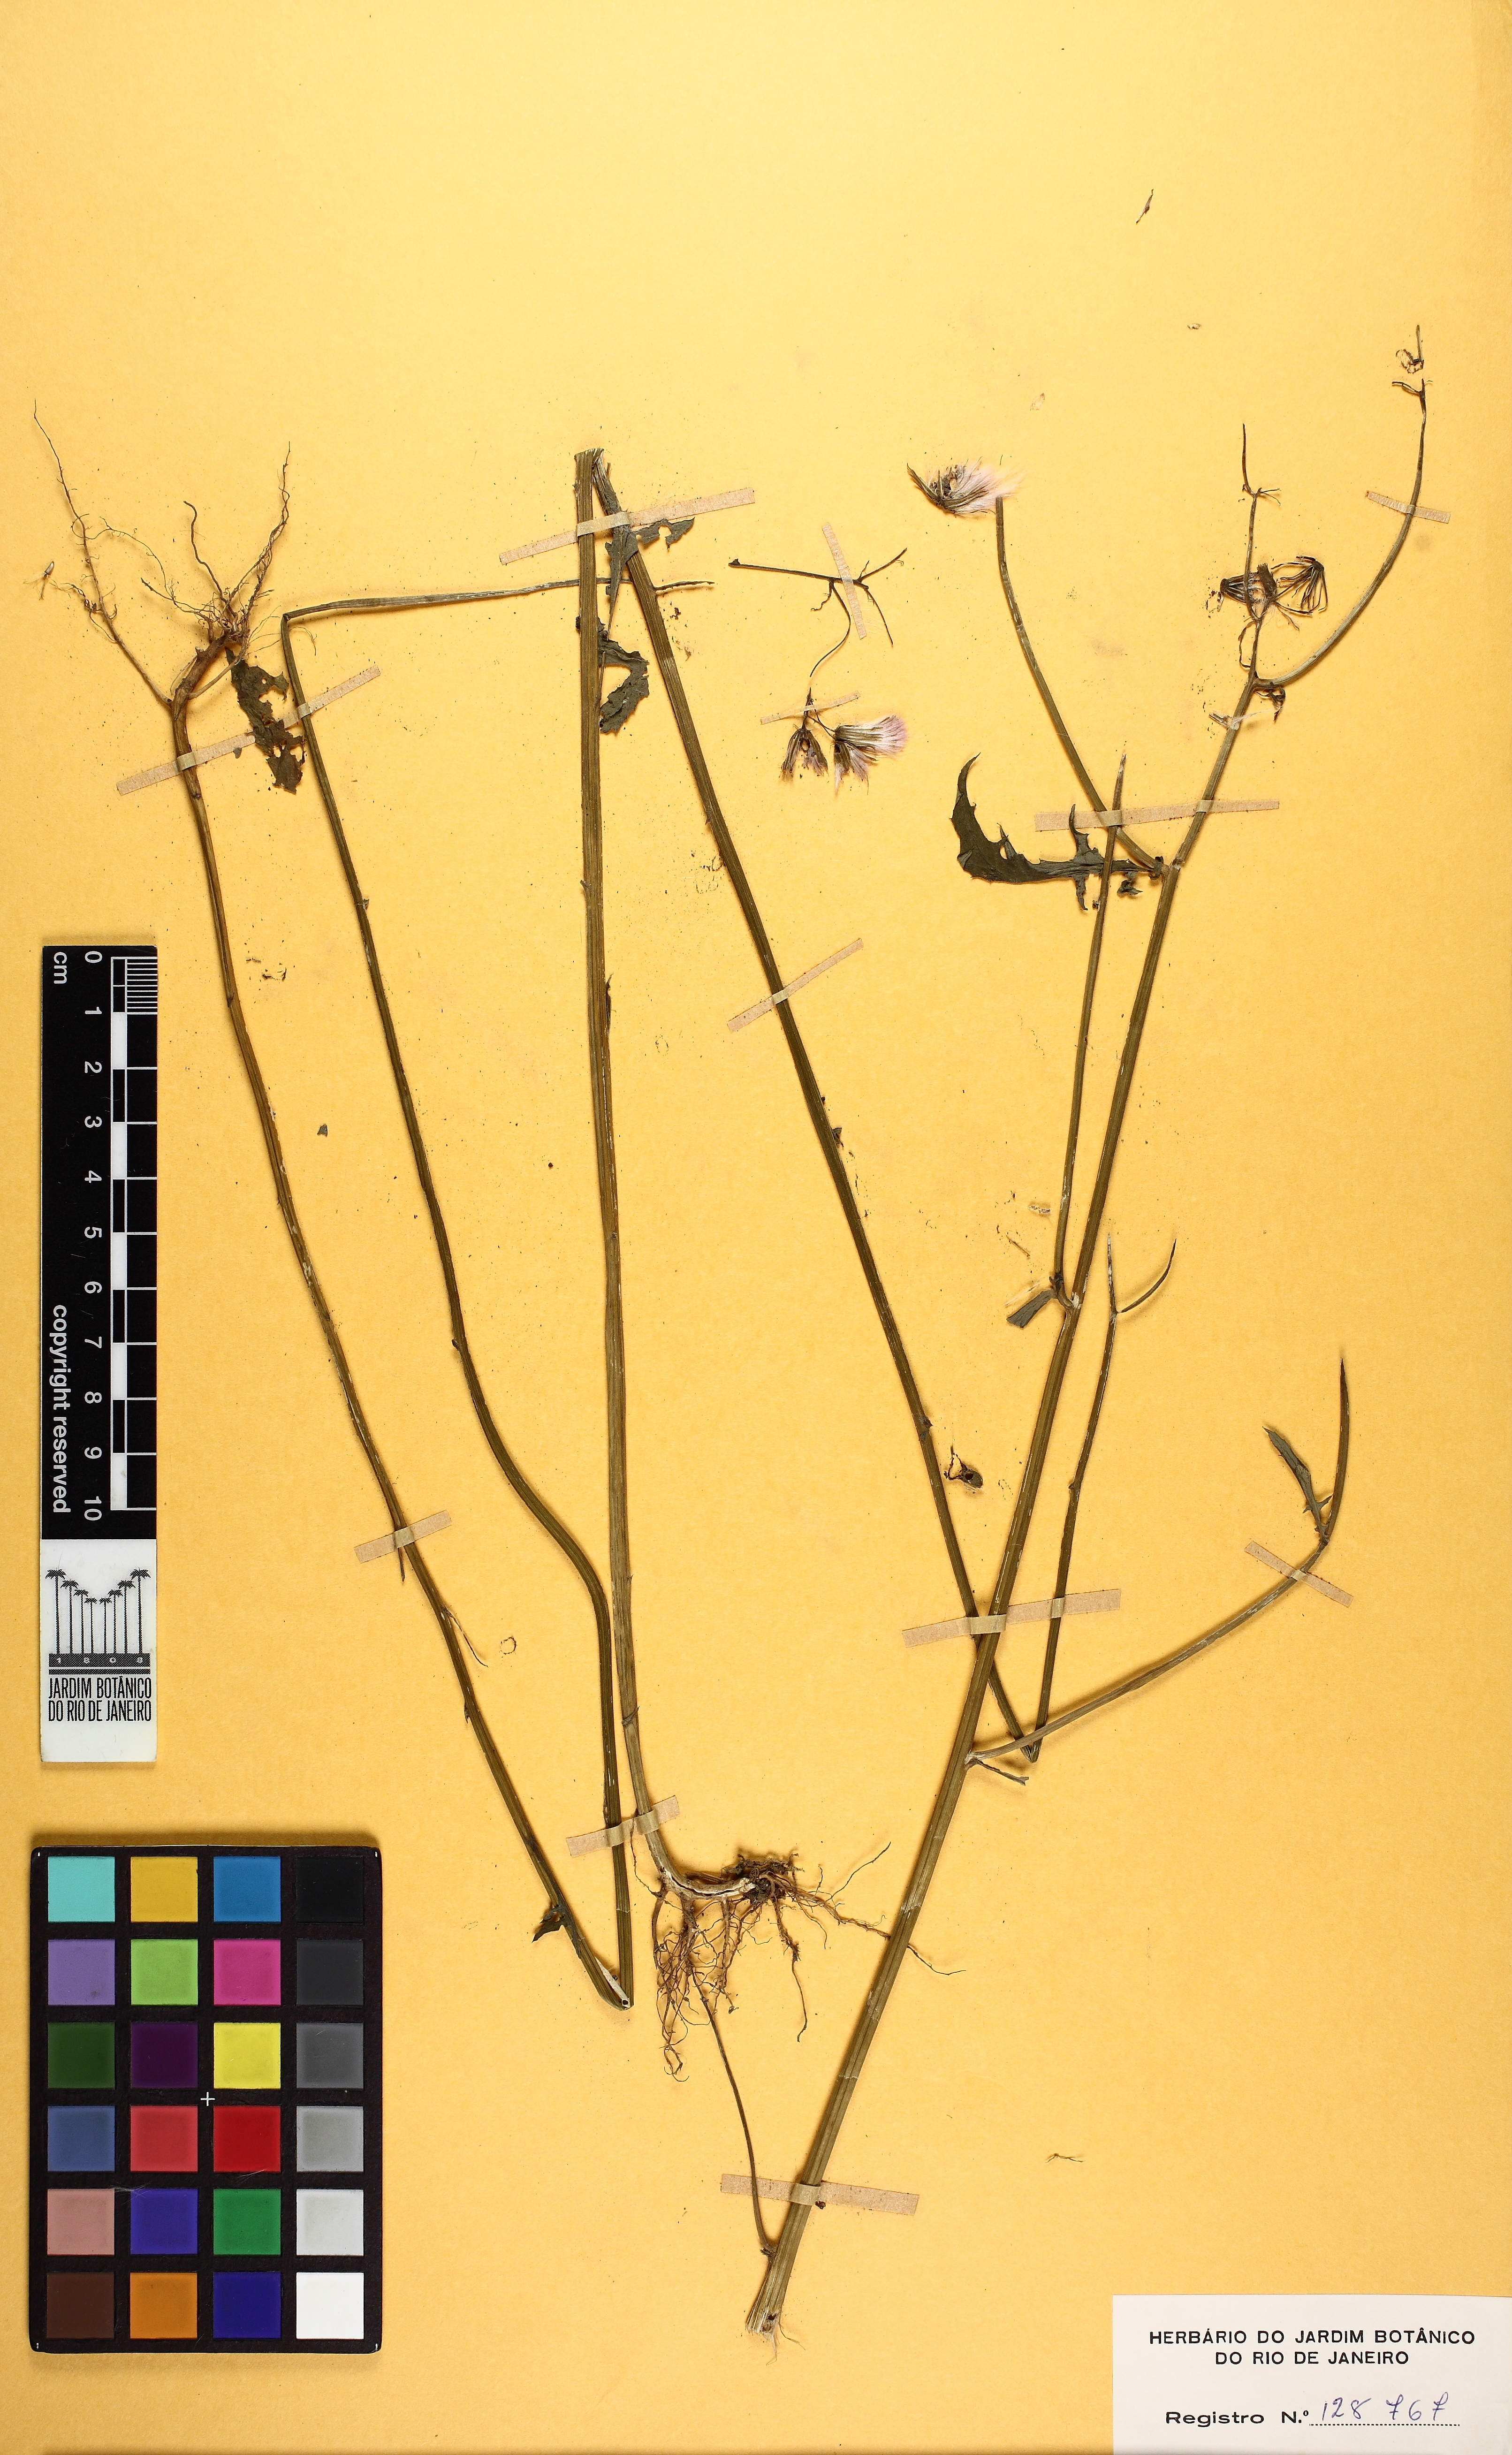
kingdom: Plantae
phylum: Tracheophyta
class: Magnoliopsida
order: Asterales
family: Asteraceae
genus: Erechtites
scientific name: Erechtites valerianifolius
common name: Tropical burnweed
